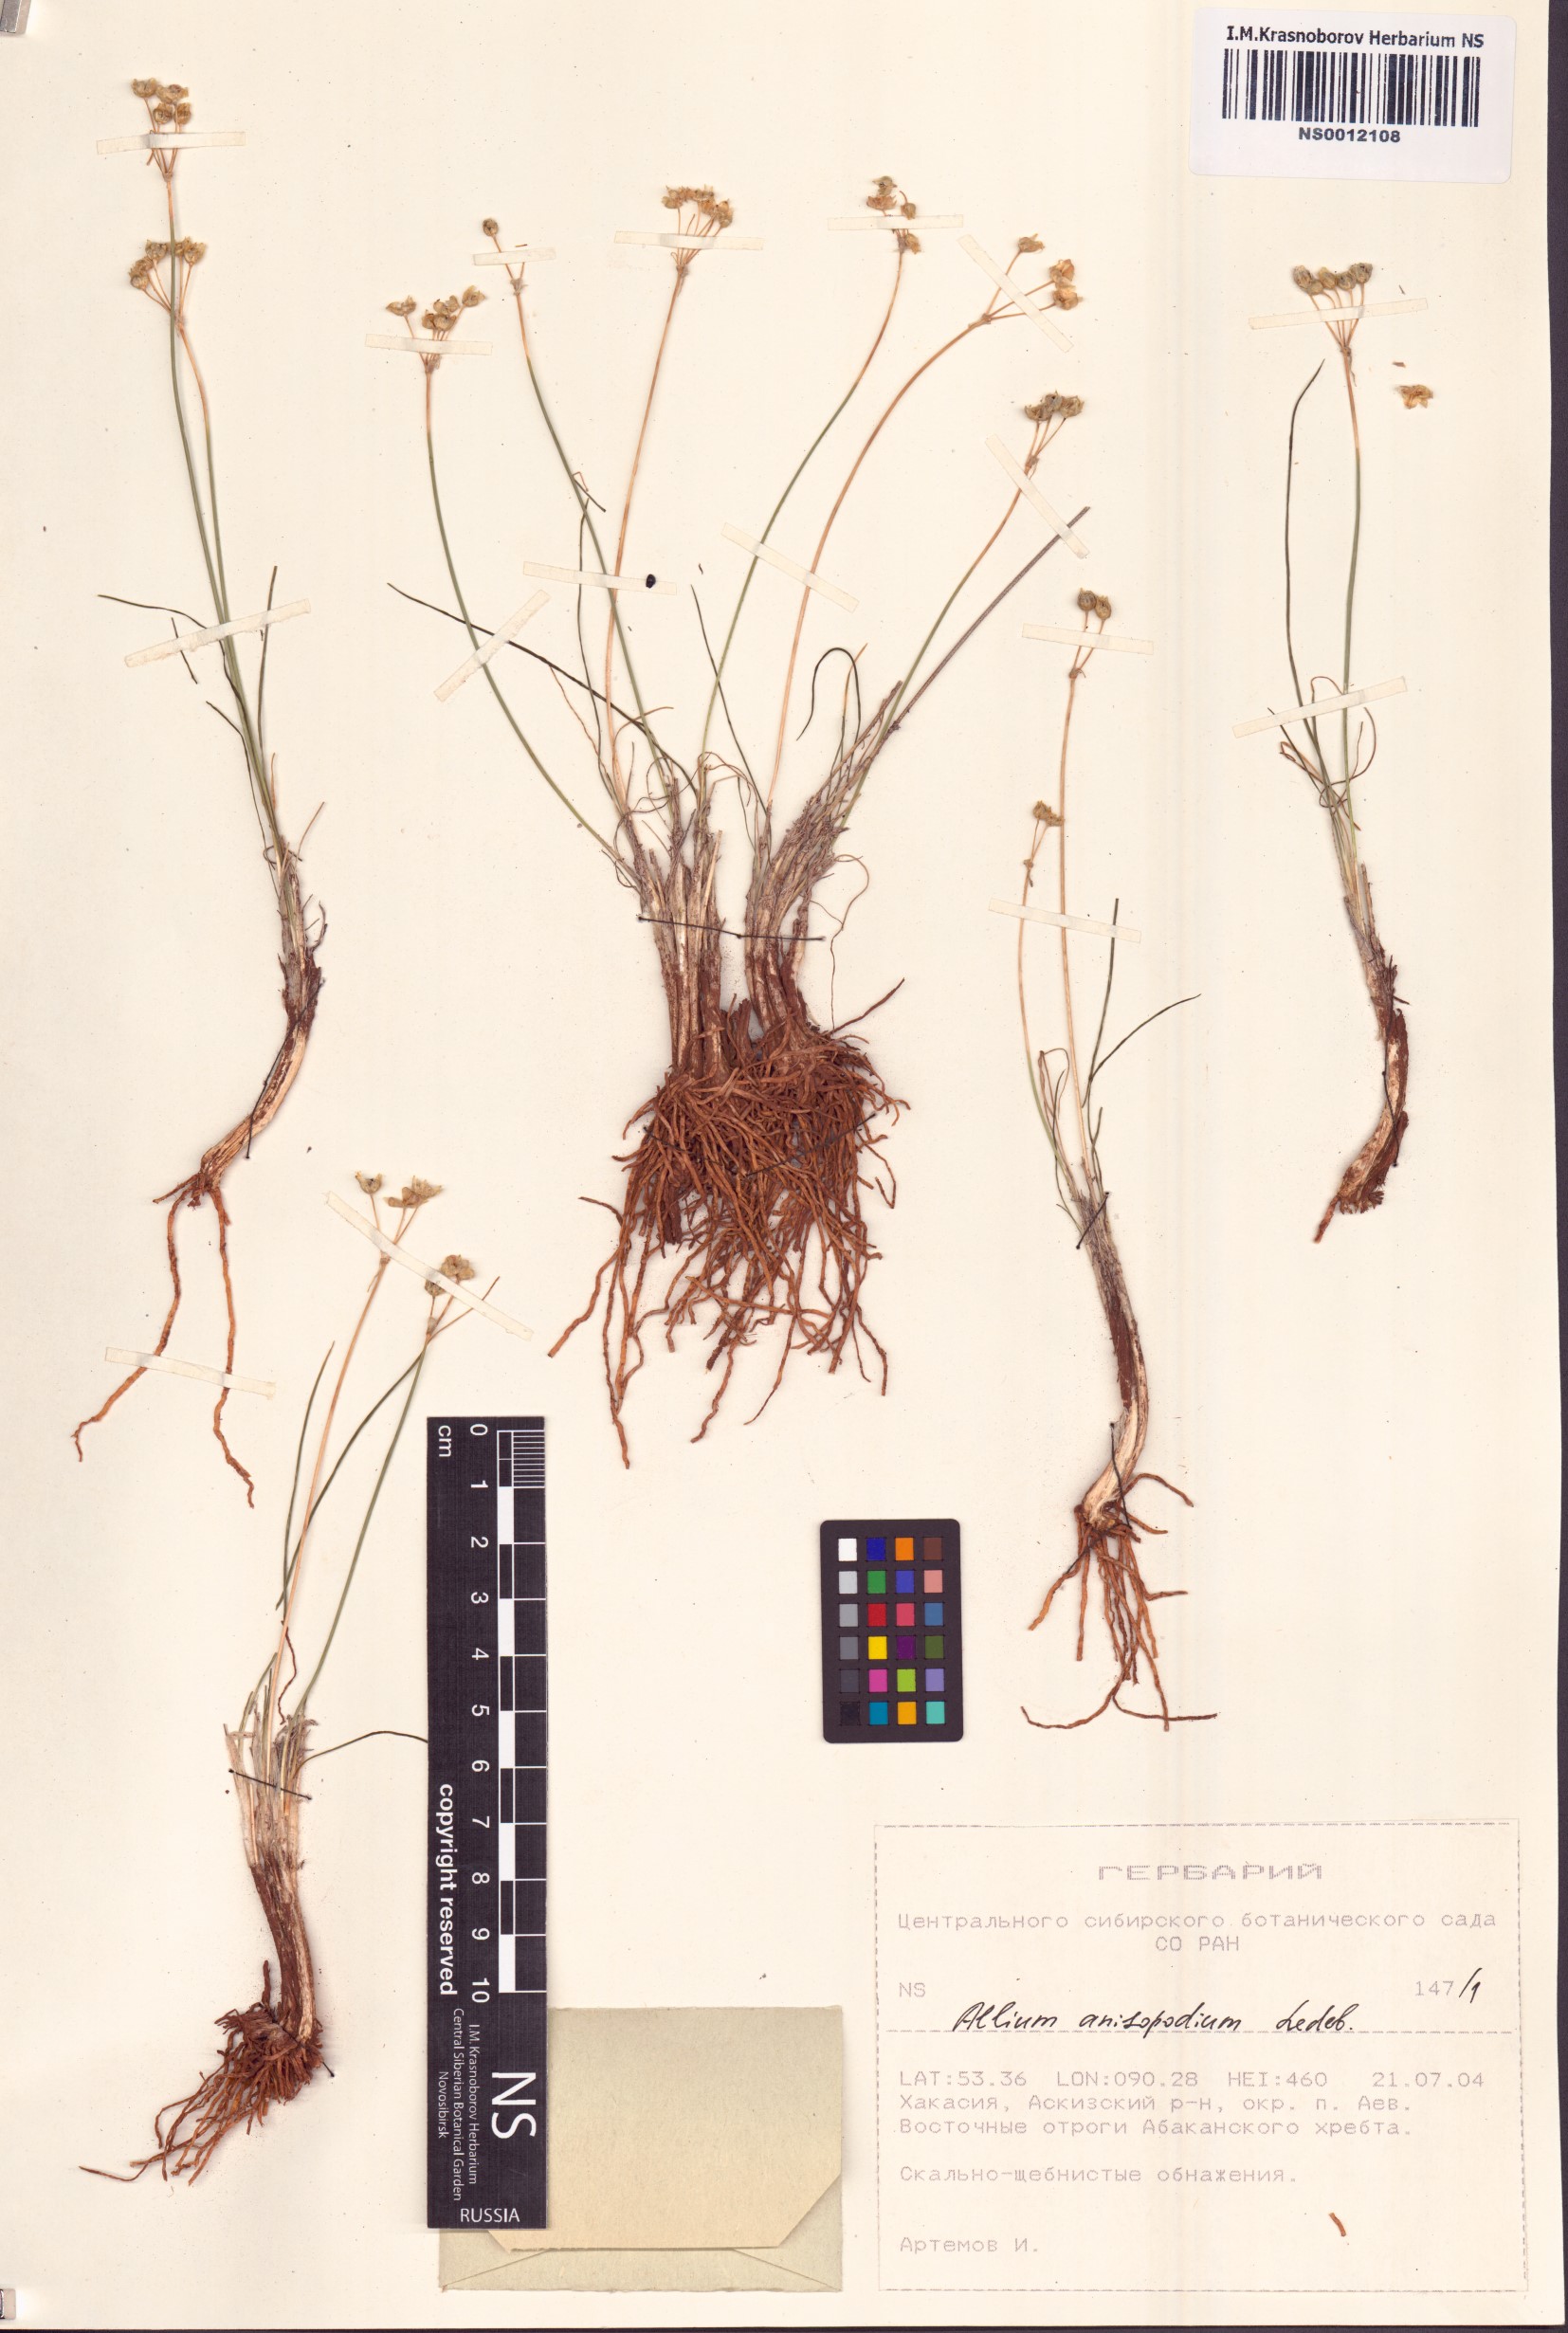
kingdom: Plantae
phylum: Tracheophyta
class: Liliopsida
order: Asparagales
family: Amaryllidaceae
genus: Allium
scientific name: Allium anisopodium
